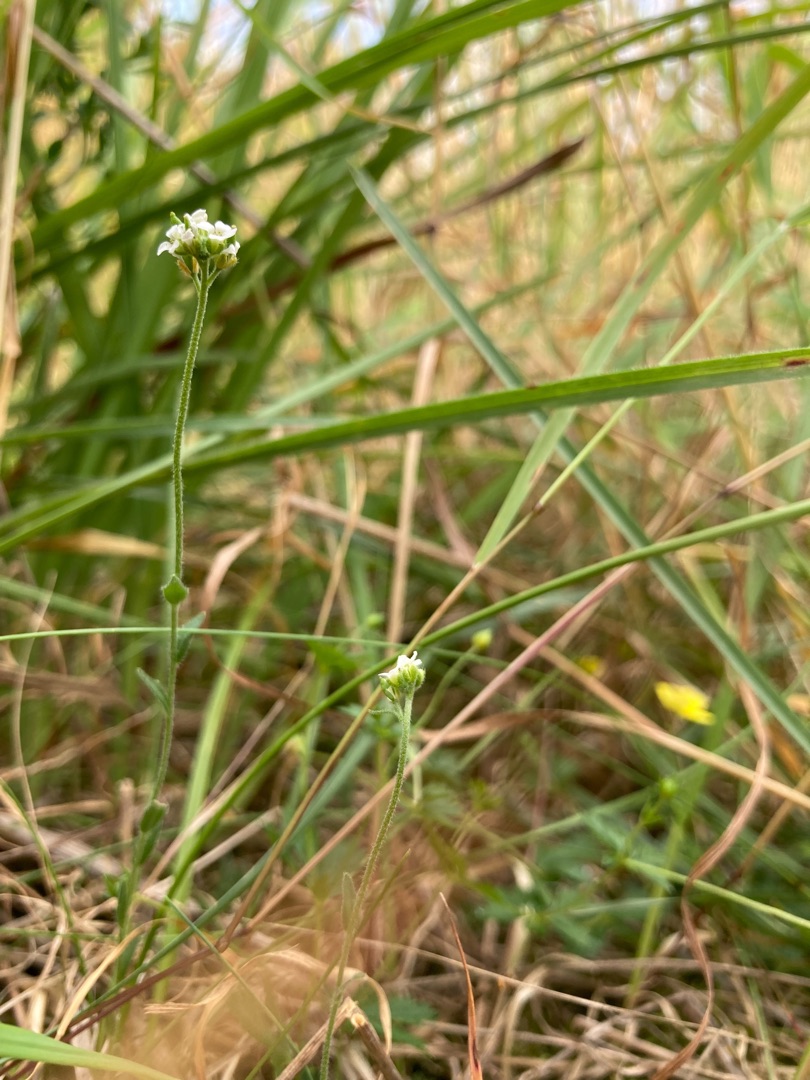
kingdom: Plantae
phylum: Tracheophyta
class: Magnoliopsida
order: Brassicales
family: Brassicaceae
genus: Draba
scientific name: Draba incana
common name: Hvidgrå draba
